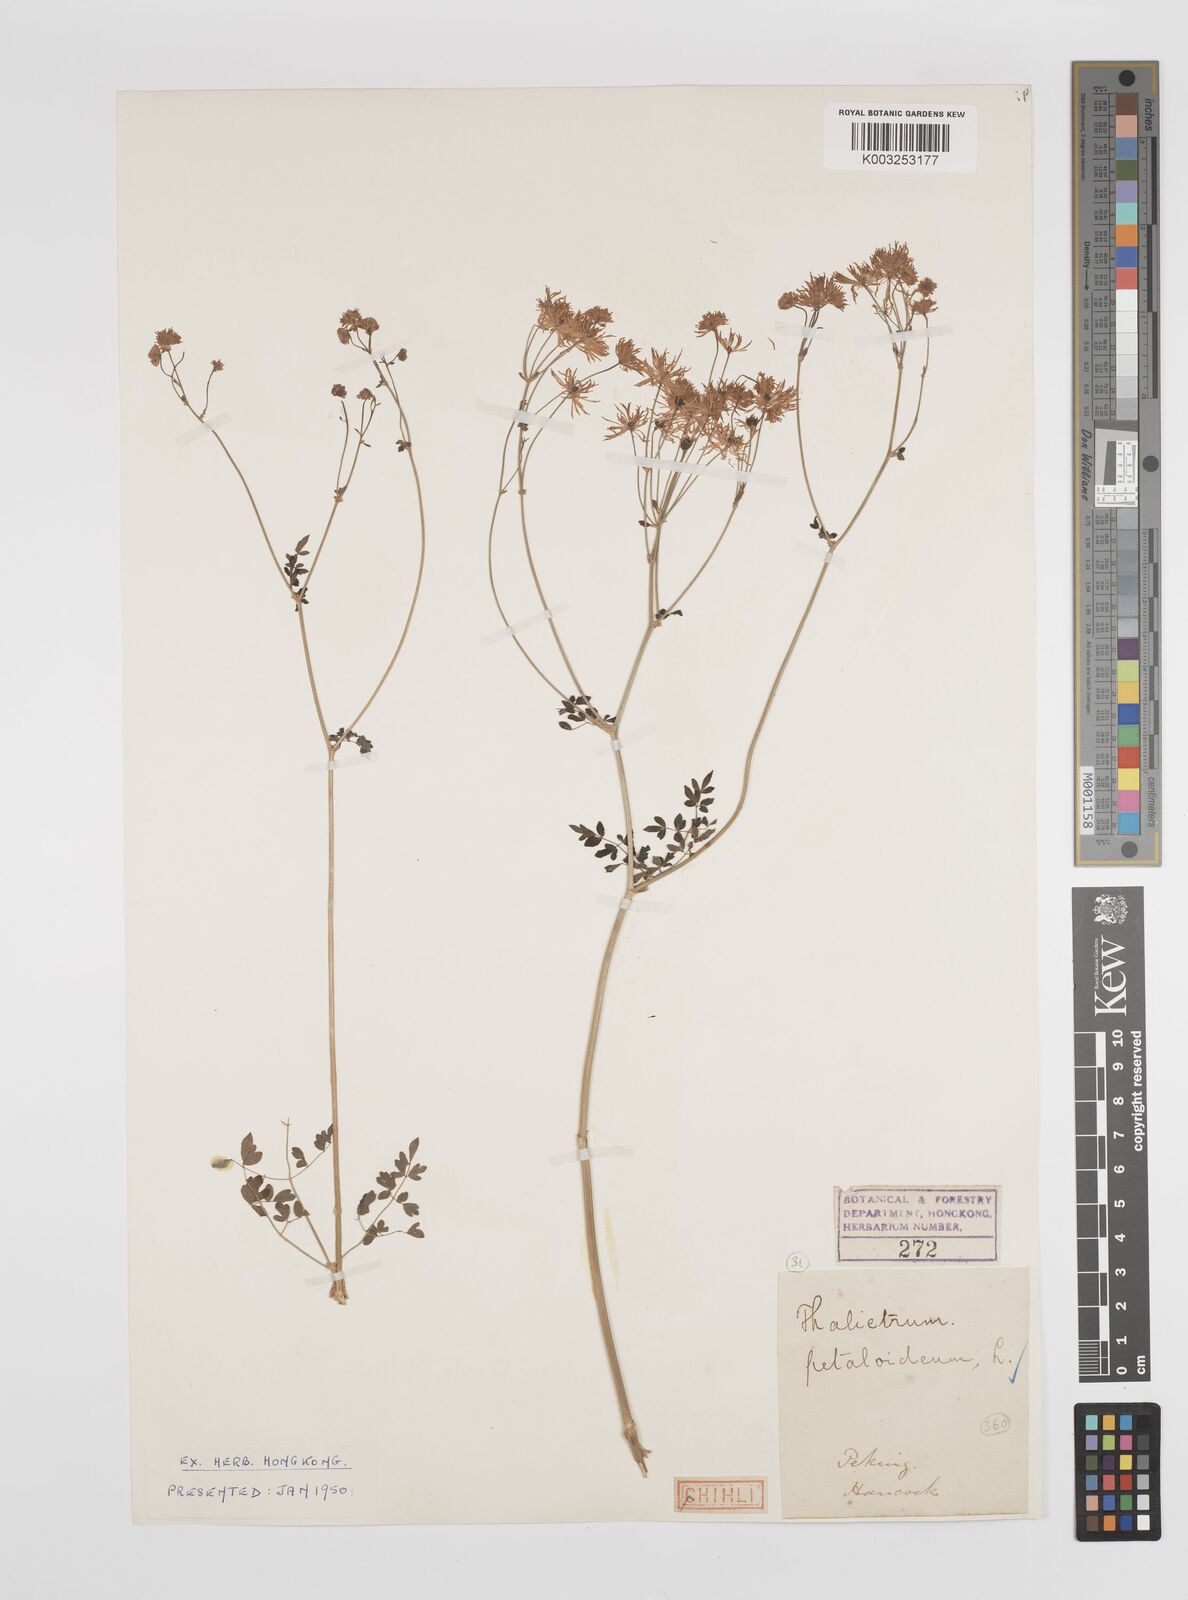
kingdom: Plantae
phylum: Tracheophyta
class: Magnoliopsida
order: Ranunculales
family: Ranunculaceae
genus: Thalictrum
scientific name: Thalictrum petaloideum
